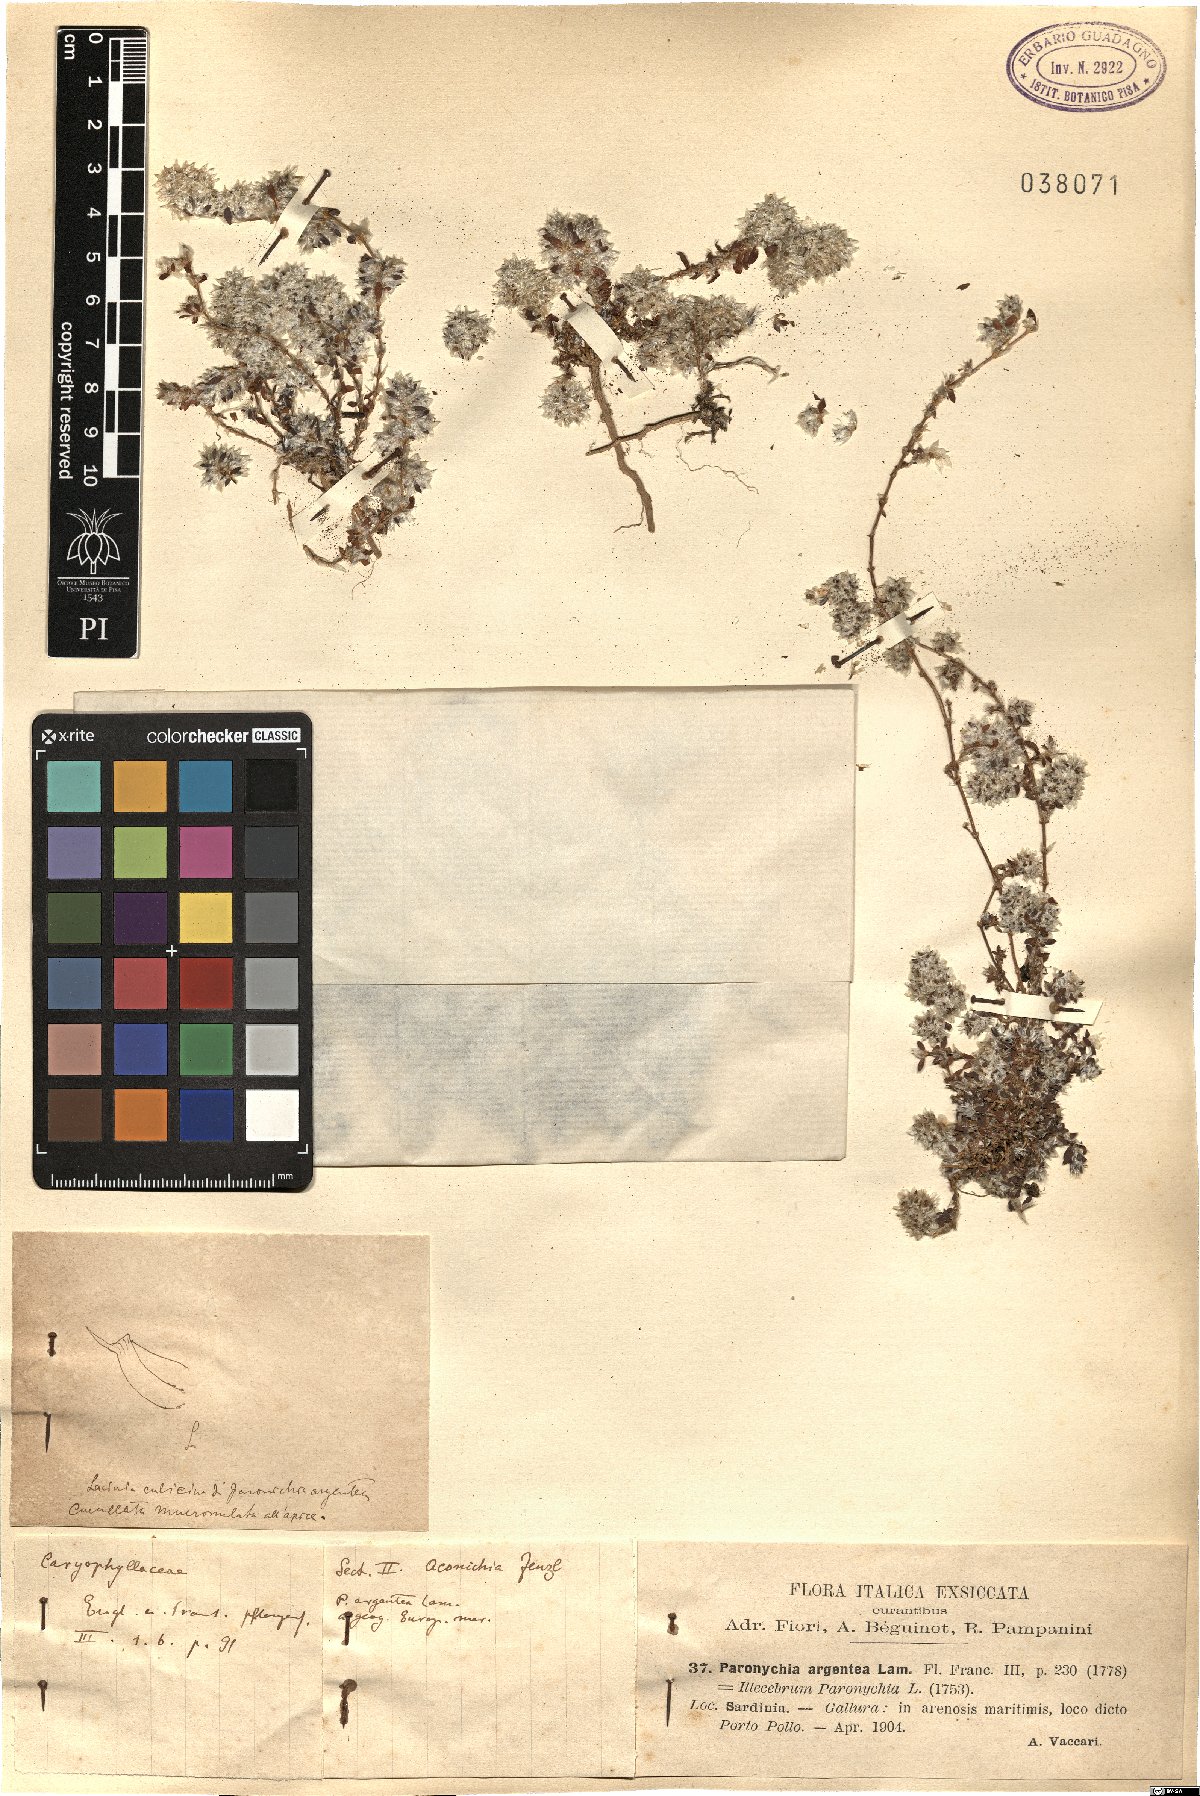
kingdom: Plantae
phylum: Tracheophyta
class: Magnoliopsida
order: Caryophyllales
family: Caryophyllaceae
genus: Paronychia
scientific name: Paronychia argentea
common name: Silver nailroot
